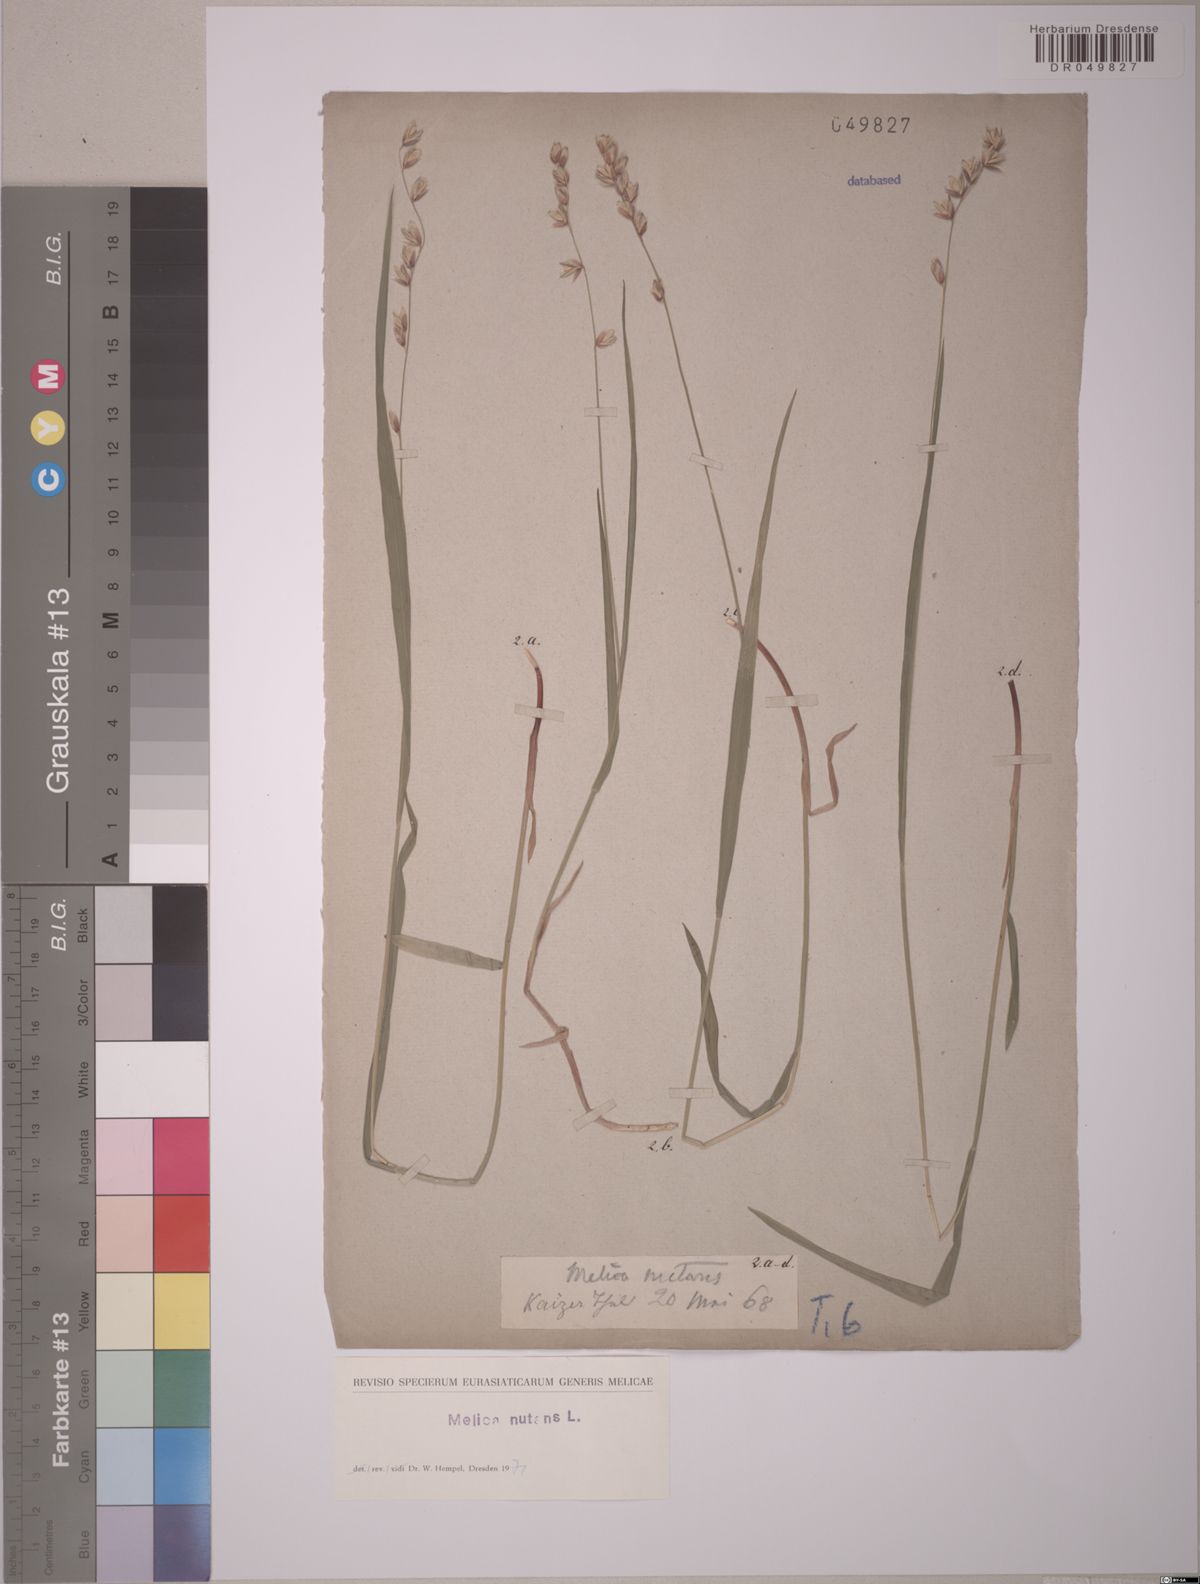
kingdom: Plantae
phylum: Tracheophyta
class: Liliopsida
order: Poales
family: Poaceae
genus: Melica
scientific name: Melica nutans
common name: Mountain melick
